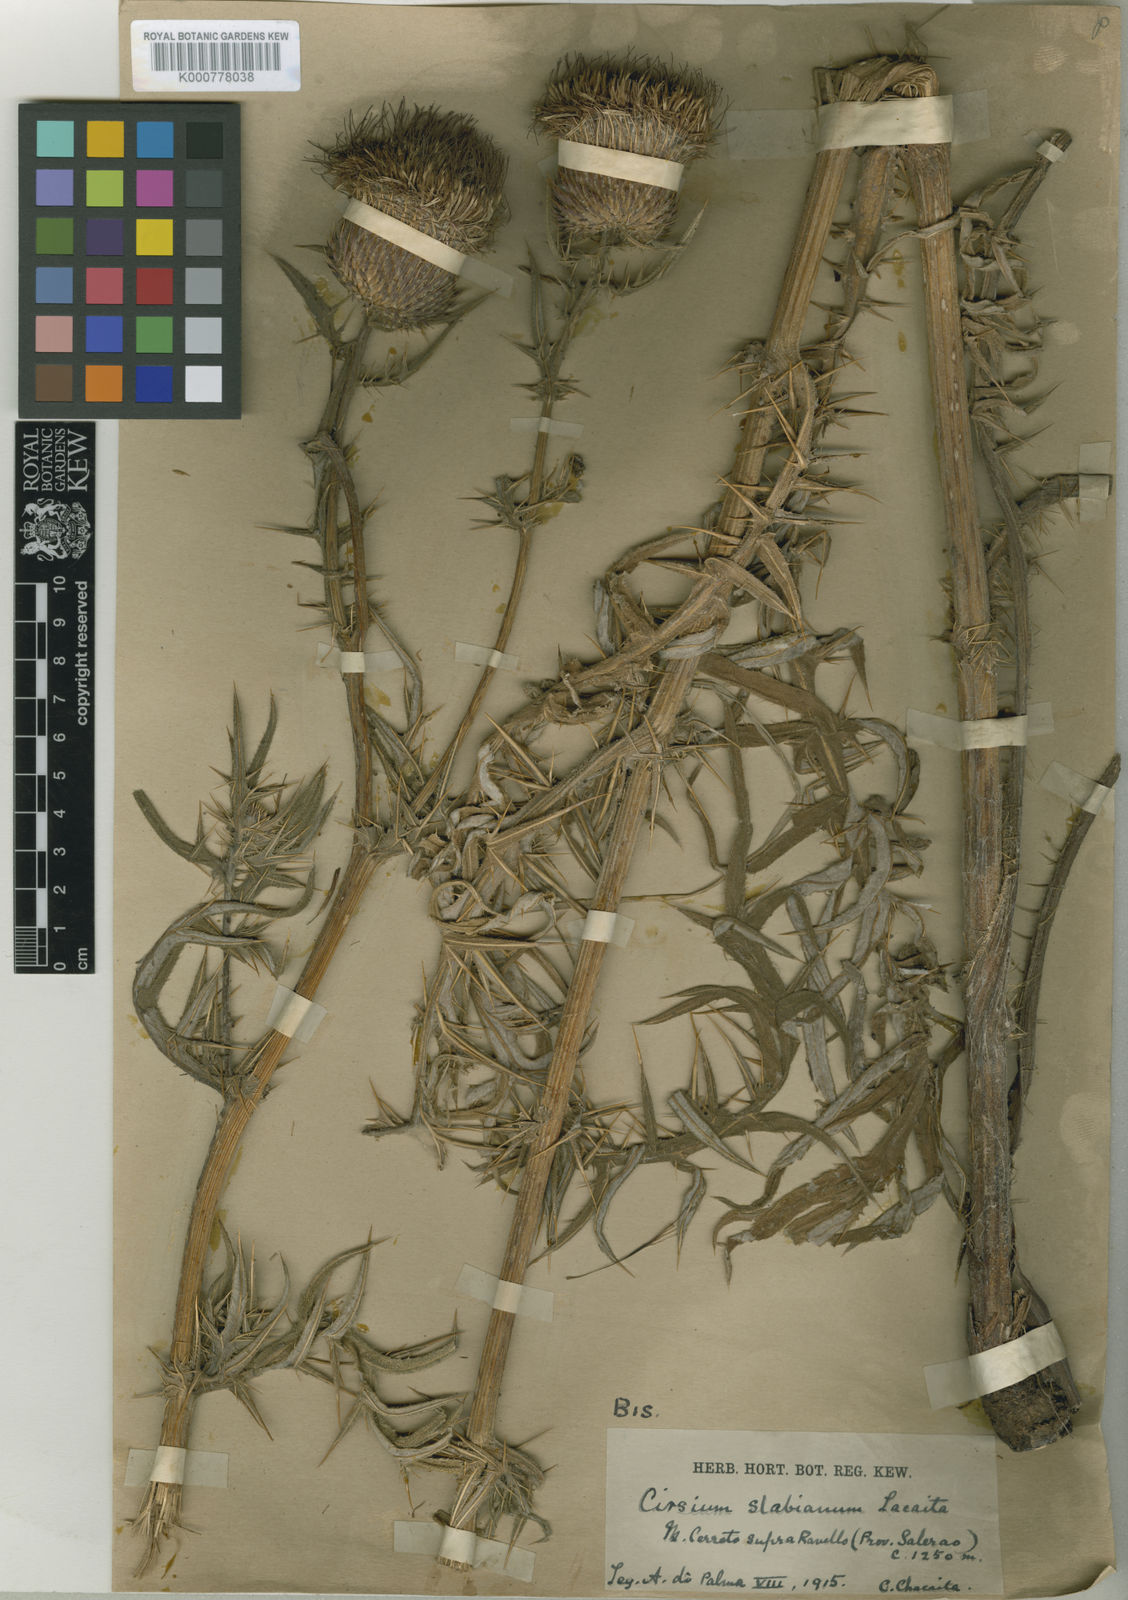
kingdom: Plantae
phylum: Tracheophyta
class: Magnoliopsida
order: Asterales
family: Asteraceae
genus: Lophiolepis
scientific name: Lophiolepis lobelii
